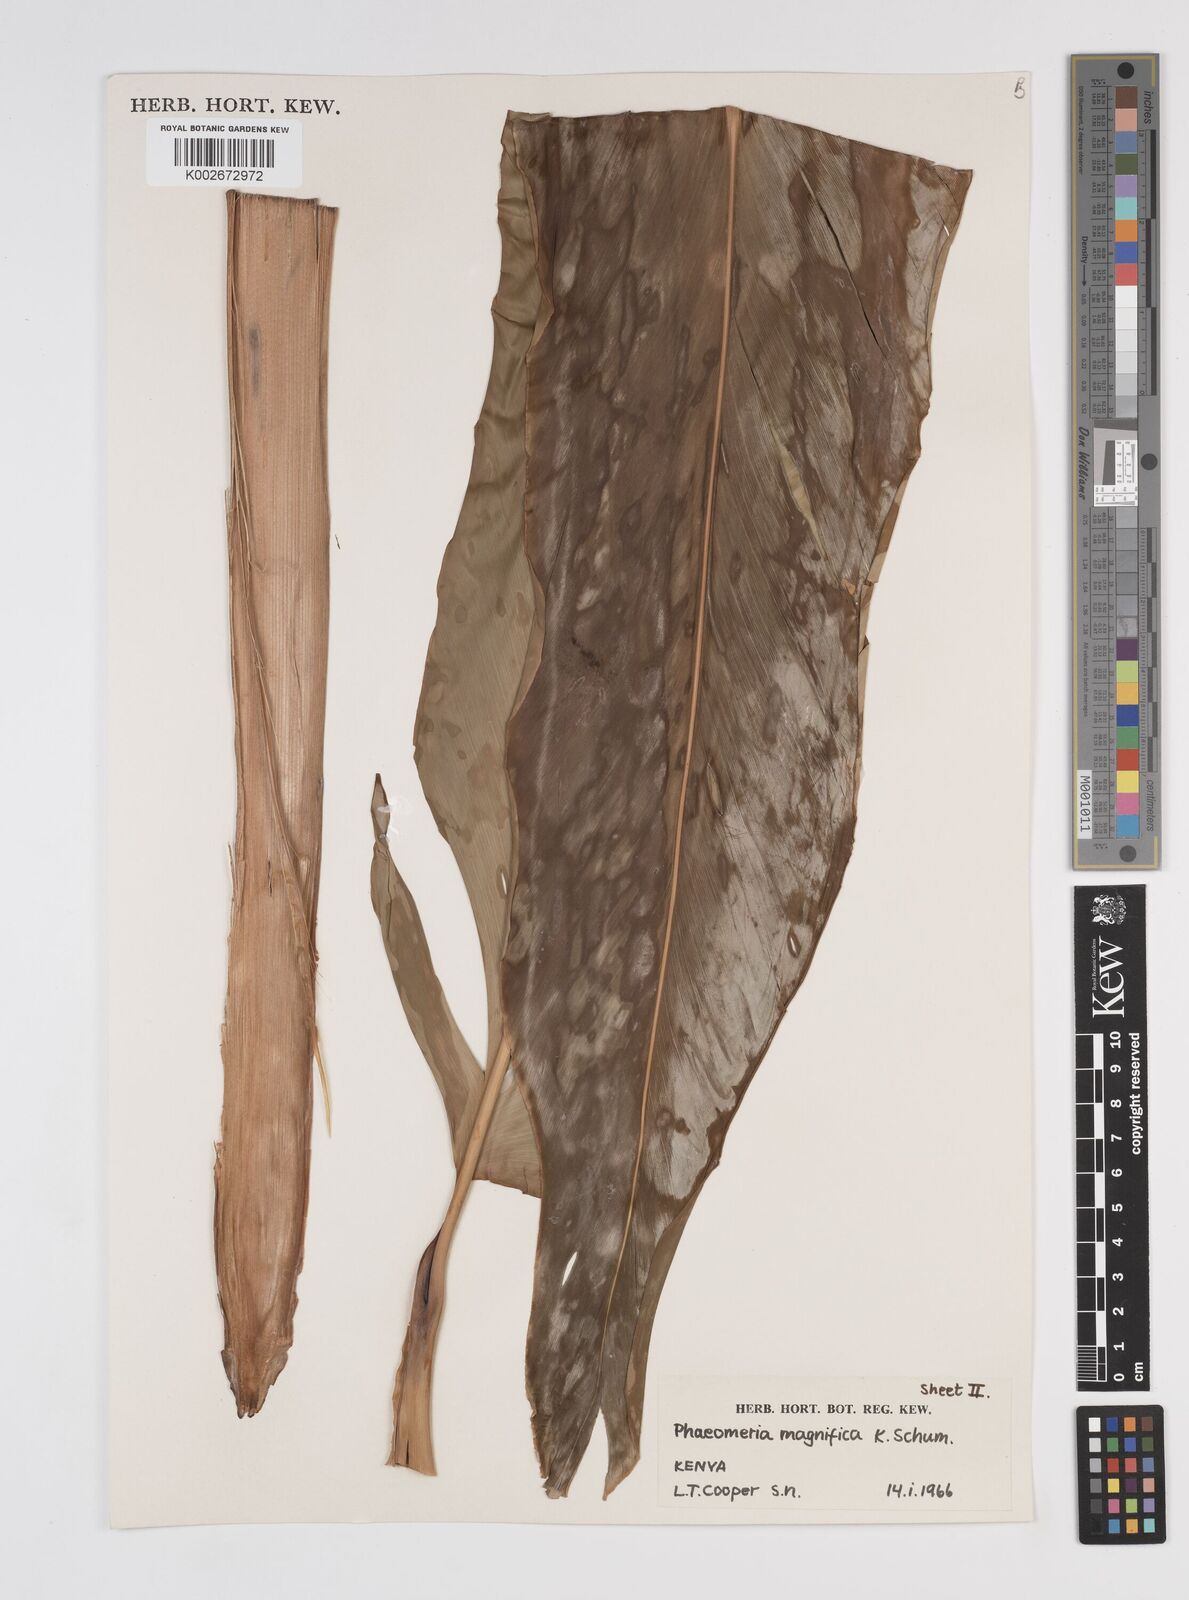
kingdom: Plantae
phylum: Tracheophyta
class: Liliopsida
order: Zingiberales
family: Zingiberaceae
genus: Etlingera
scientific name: Etlingera elatior
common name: Philippine waxflower
